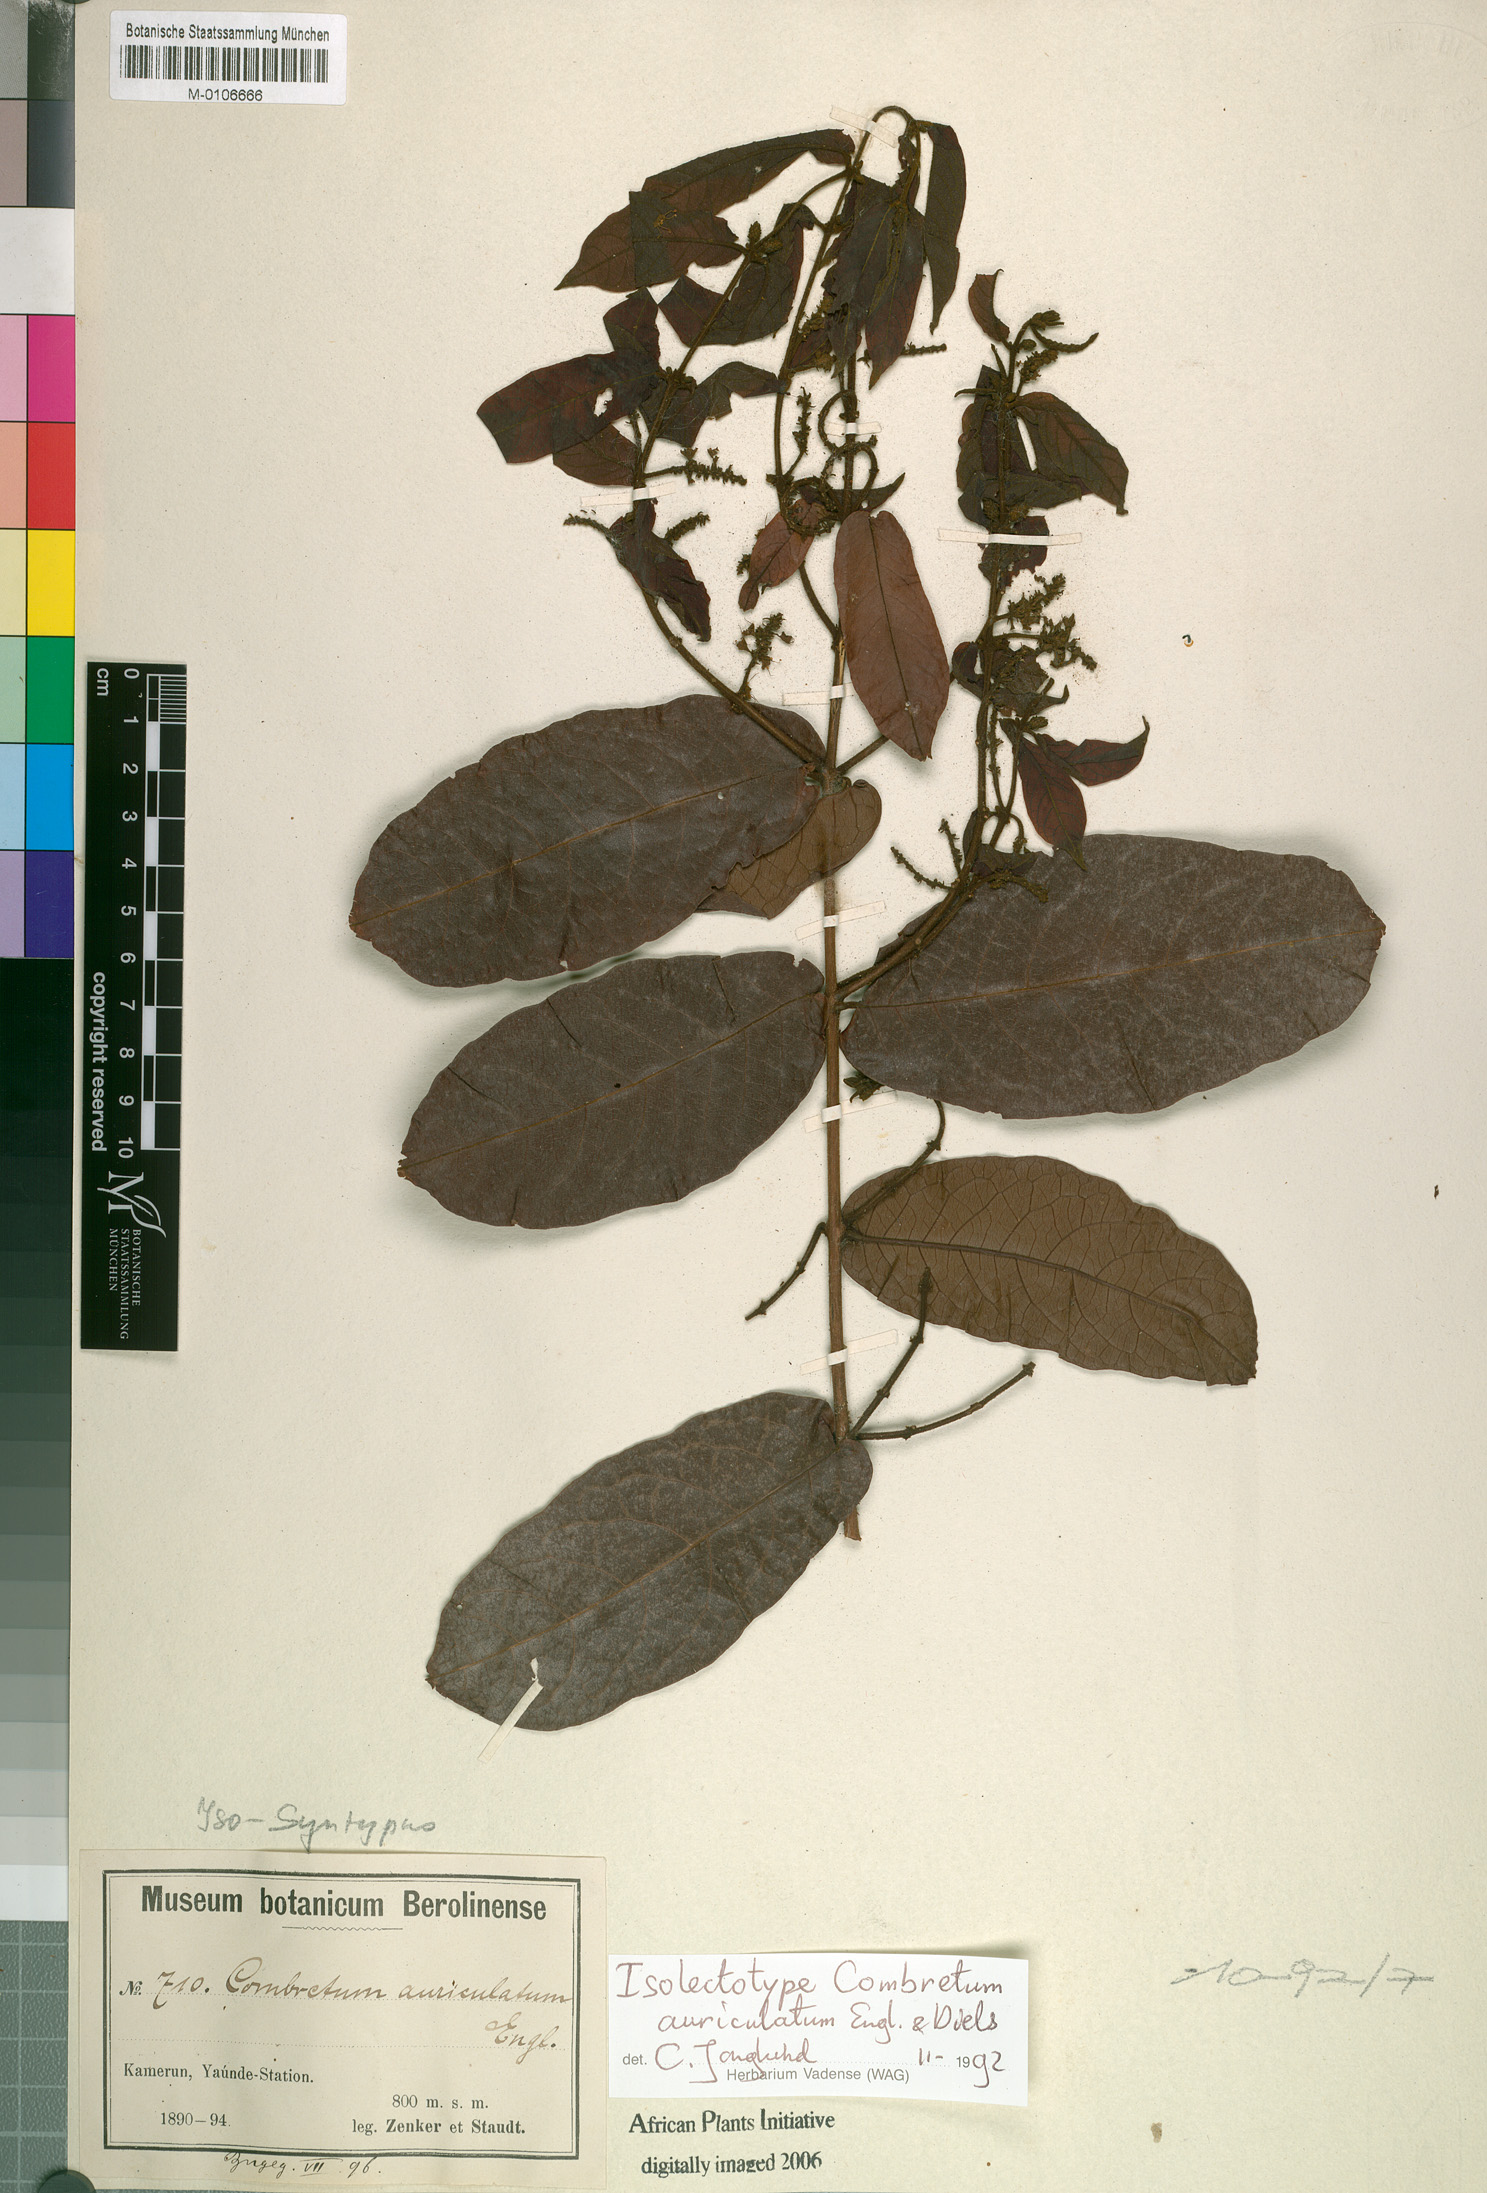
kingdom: Plantae
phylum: Tracheophyta
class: Magnoliopsida
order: Myrtales
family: Combretaceae
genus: Combretum
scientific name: Combretum auriculatum
